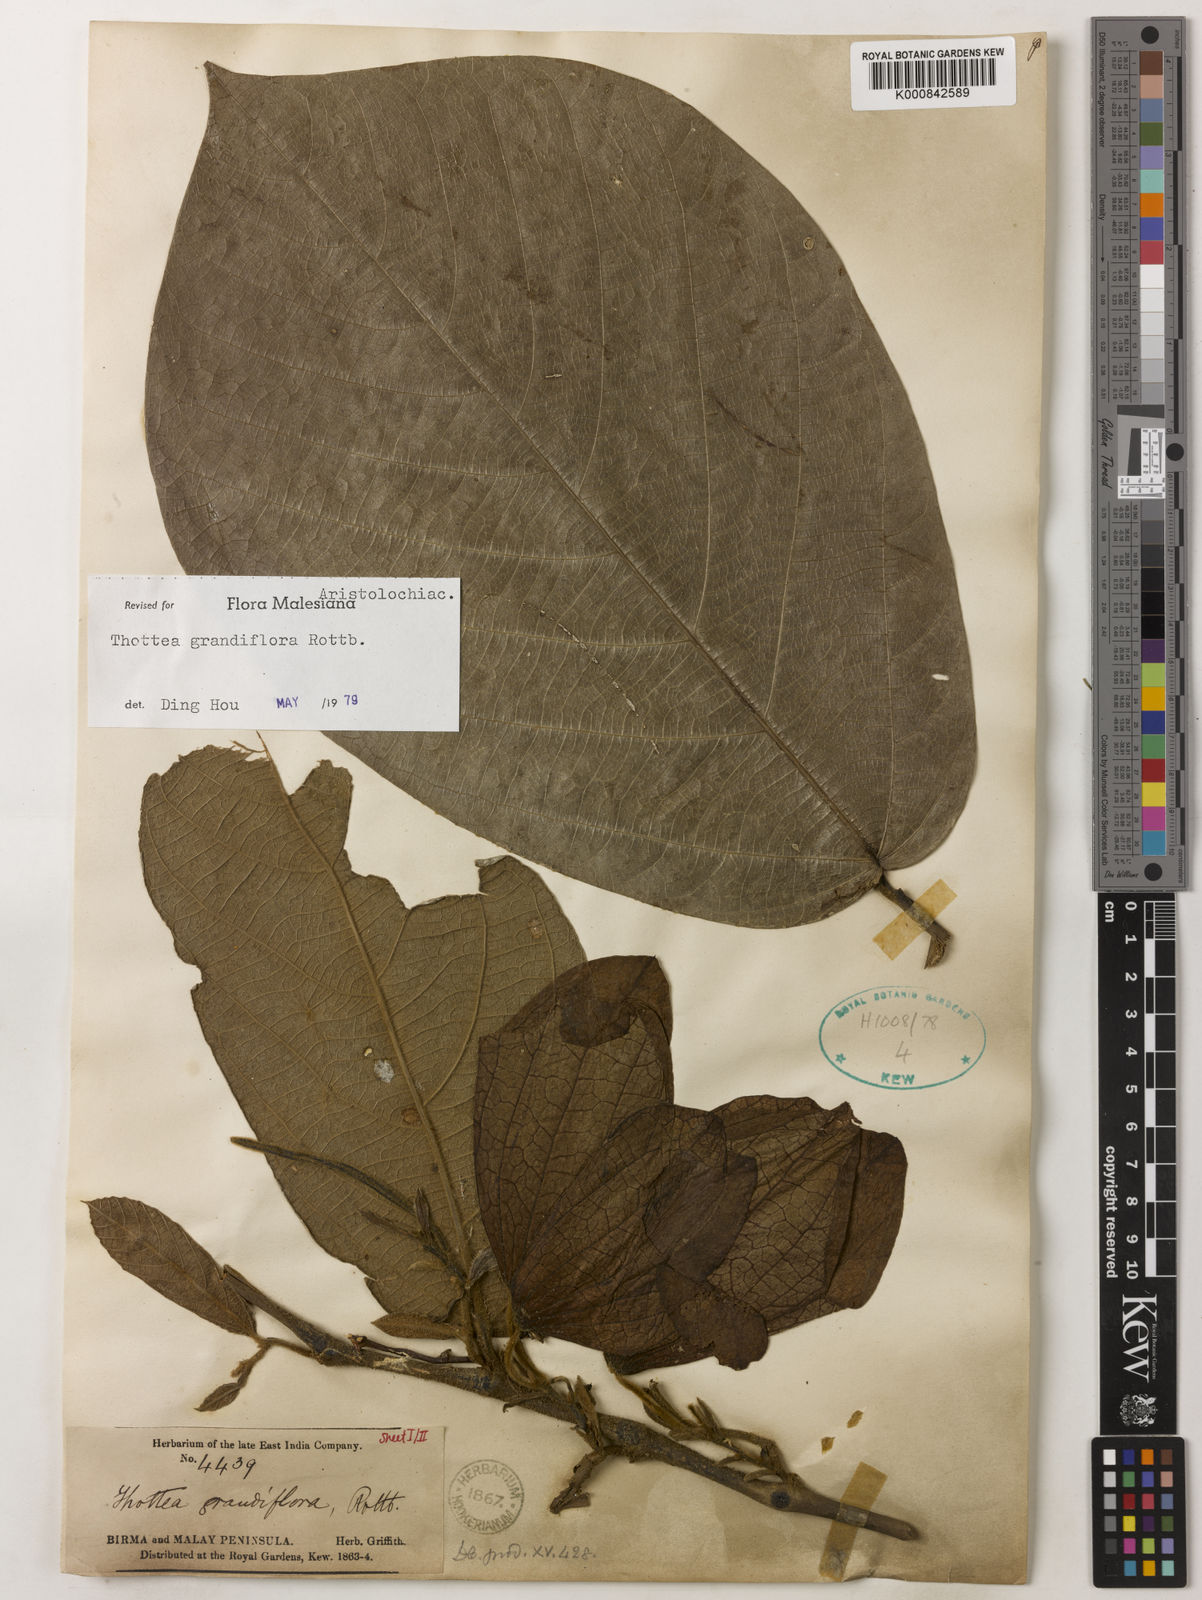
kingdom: Plantae
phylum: Tracheophyta
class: Magnoliopsida
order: Piperales
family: Aristolochiaceae
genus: Thottea
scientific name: Thottea grandiflora
